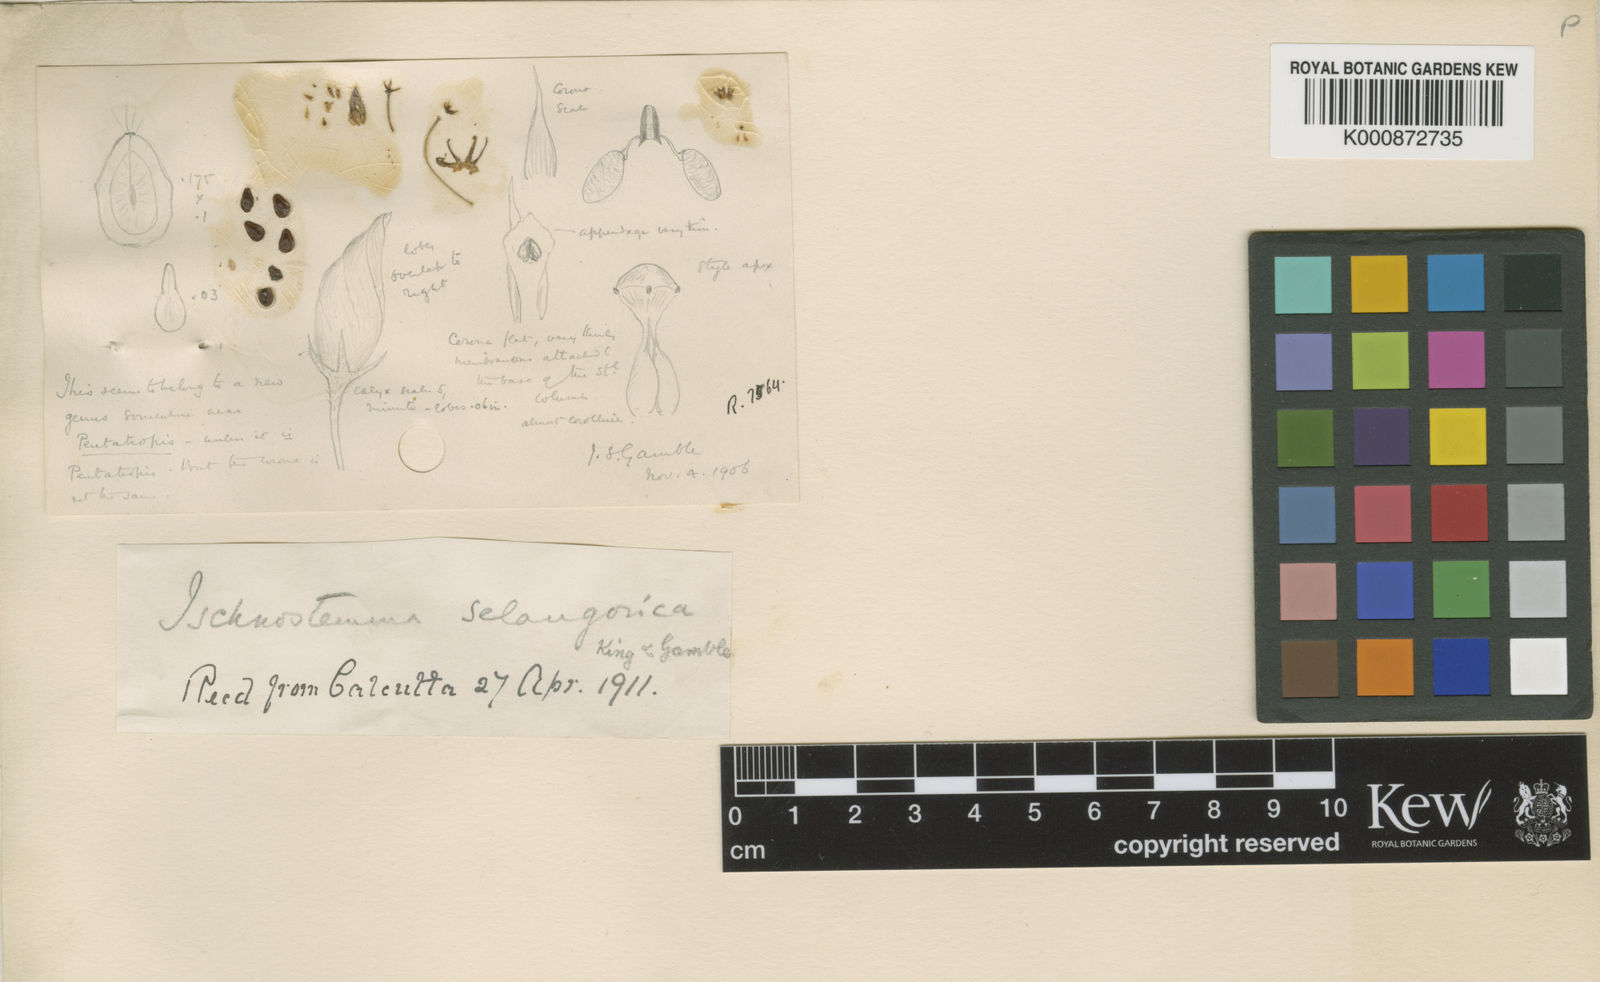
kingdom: Plantae
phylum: Tracheophyta
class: Magnoliopsida
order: Gentianales
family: Apocynaceae
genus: Vincetoxicum
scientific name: Vincetoxicum carnosum
